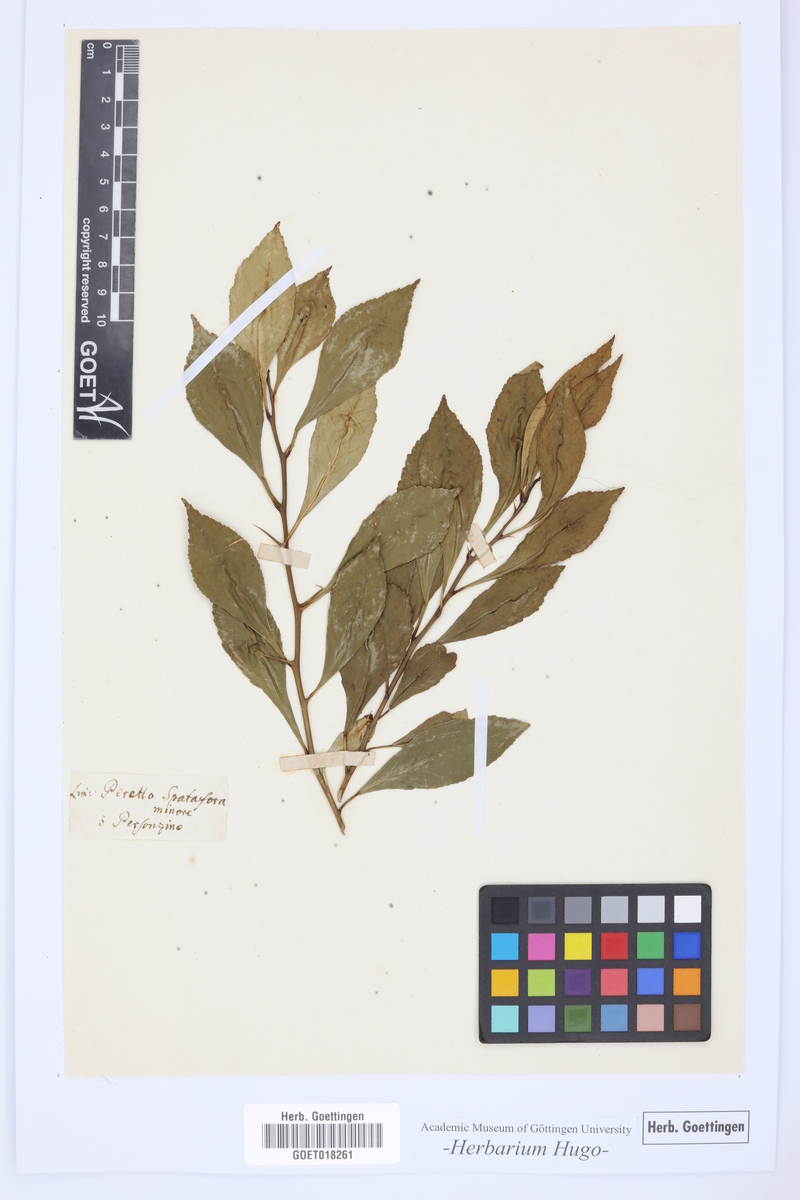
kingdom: Plantae
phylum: Tracheophyta
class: Magnoliopsida
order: Sapindales
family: Rutaceae
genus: Citrus
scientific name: Citrus
